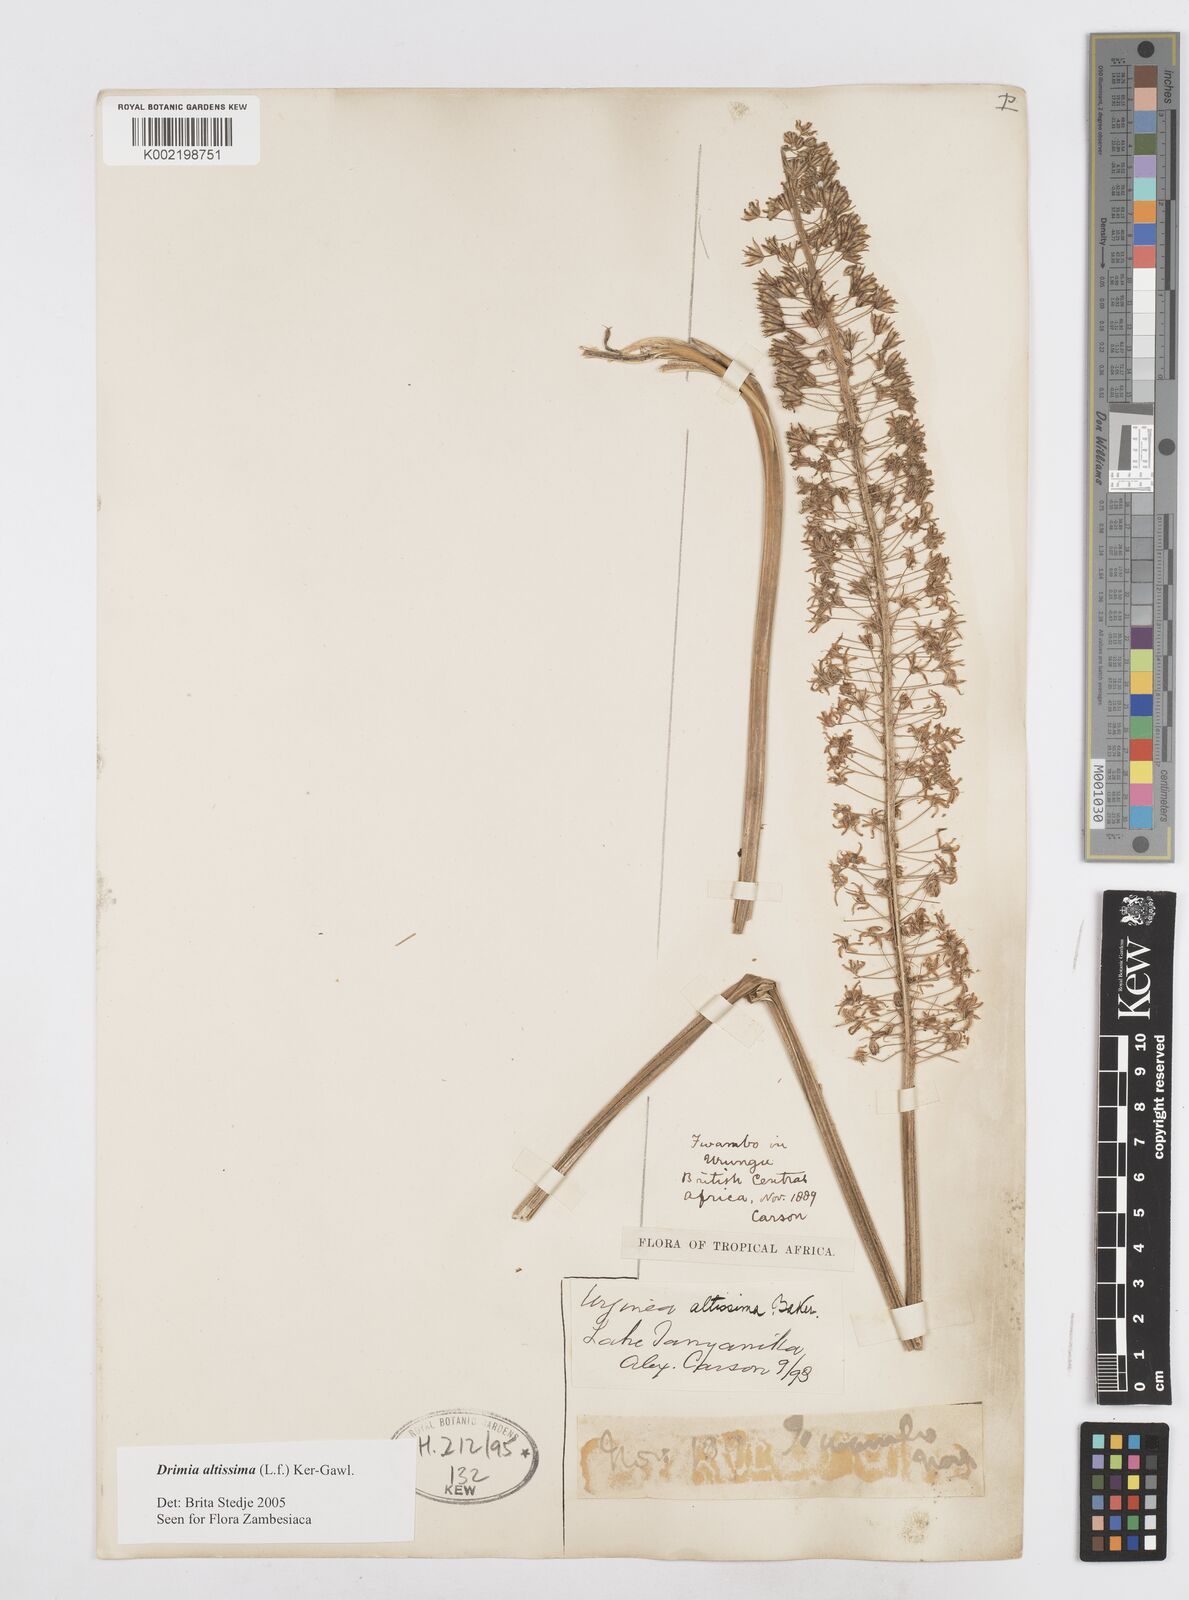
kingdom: Plantae
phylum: Tracheophyta
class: Liliopsida
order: Asparagales
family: Asparagaceae
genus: Drimia
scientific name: Drimia altissima
